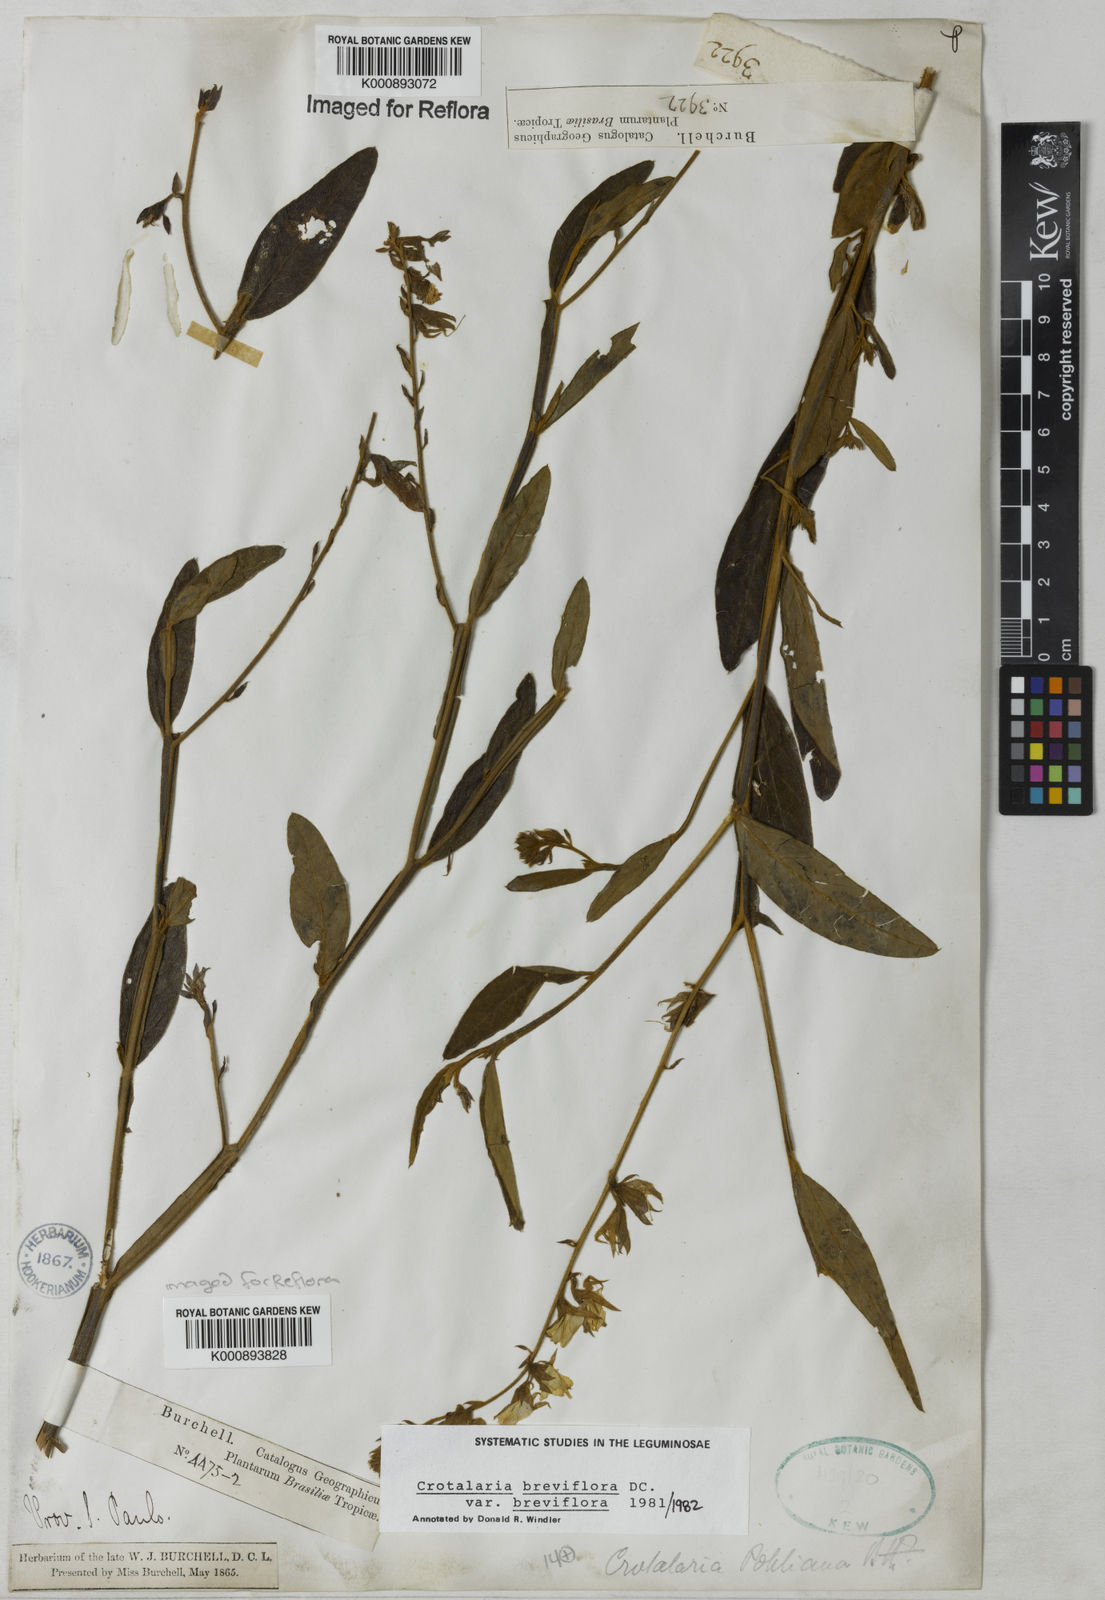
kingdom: Plantae
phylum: Tracheophyta
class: Magnoliopsida
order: Fabales
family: Fabaceae
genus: Crotalaria
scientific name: Crotalaria breviflora
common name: Short-flower crotalaria
